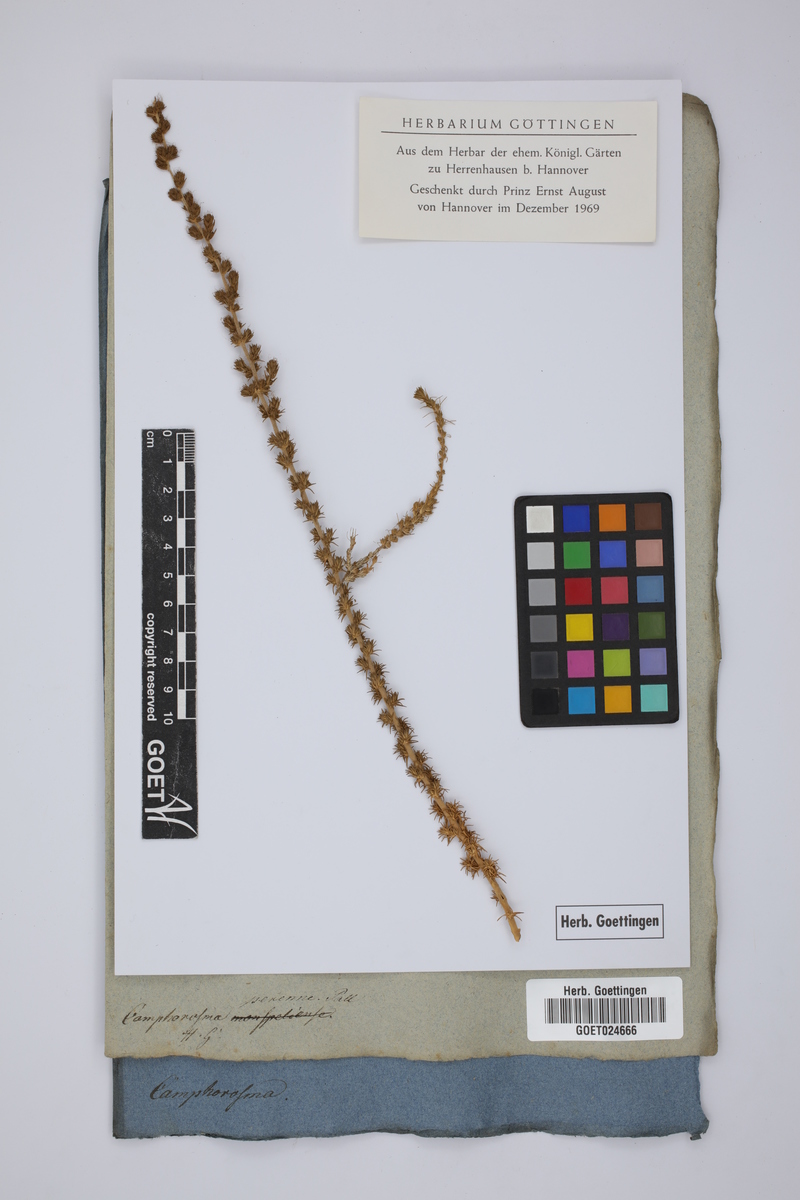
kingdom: Plantae
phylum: Tracheophyta
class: Magnoliopsida
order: Caryophyllales
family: Amaranthaceae
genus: Camphorosma
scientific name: Camphorosma monspeliaca
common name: Camphorfume
